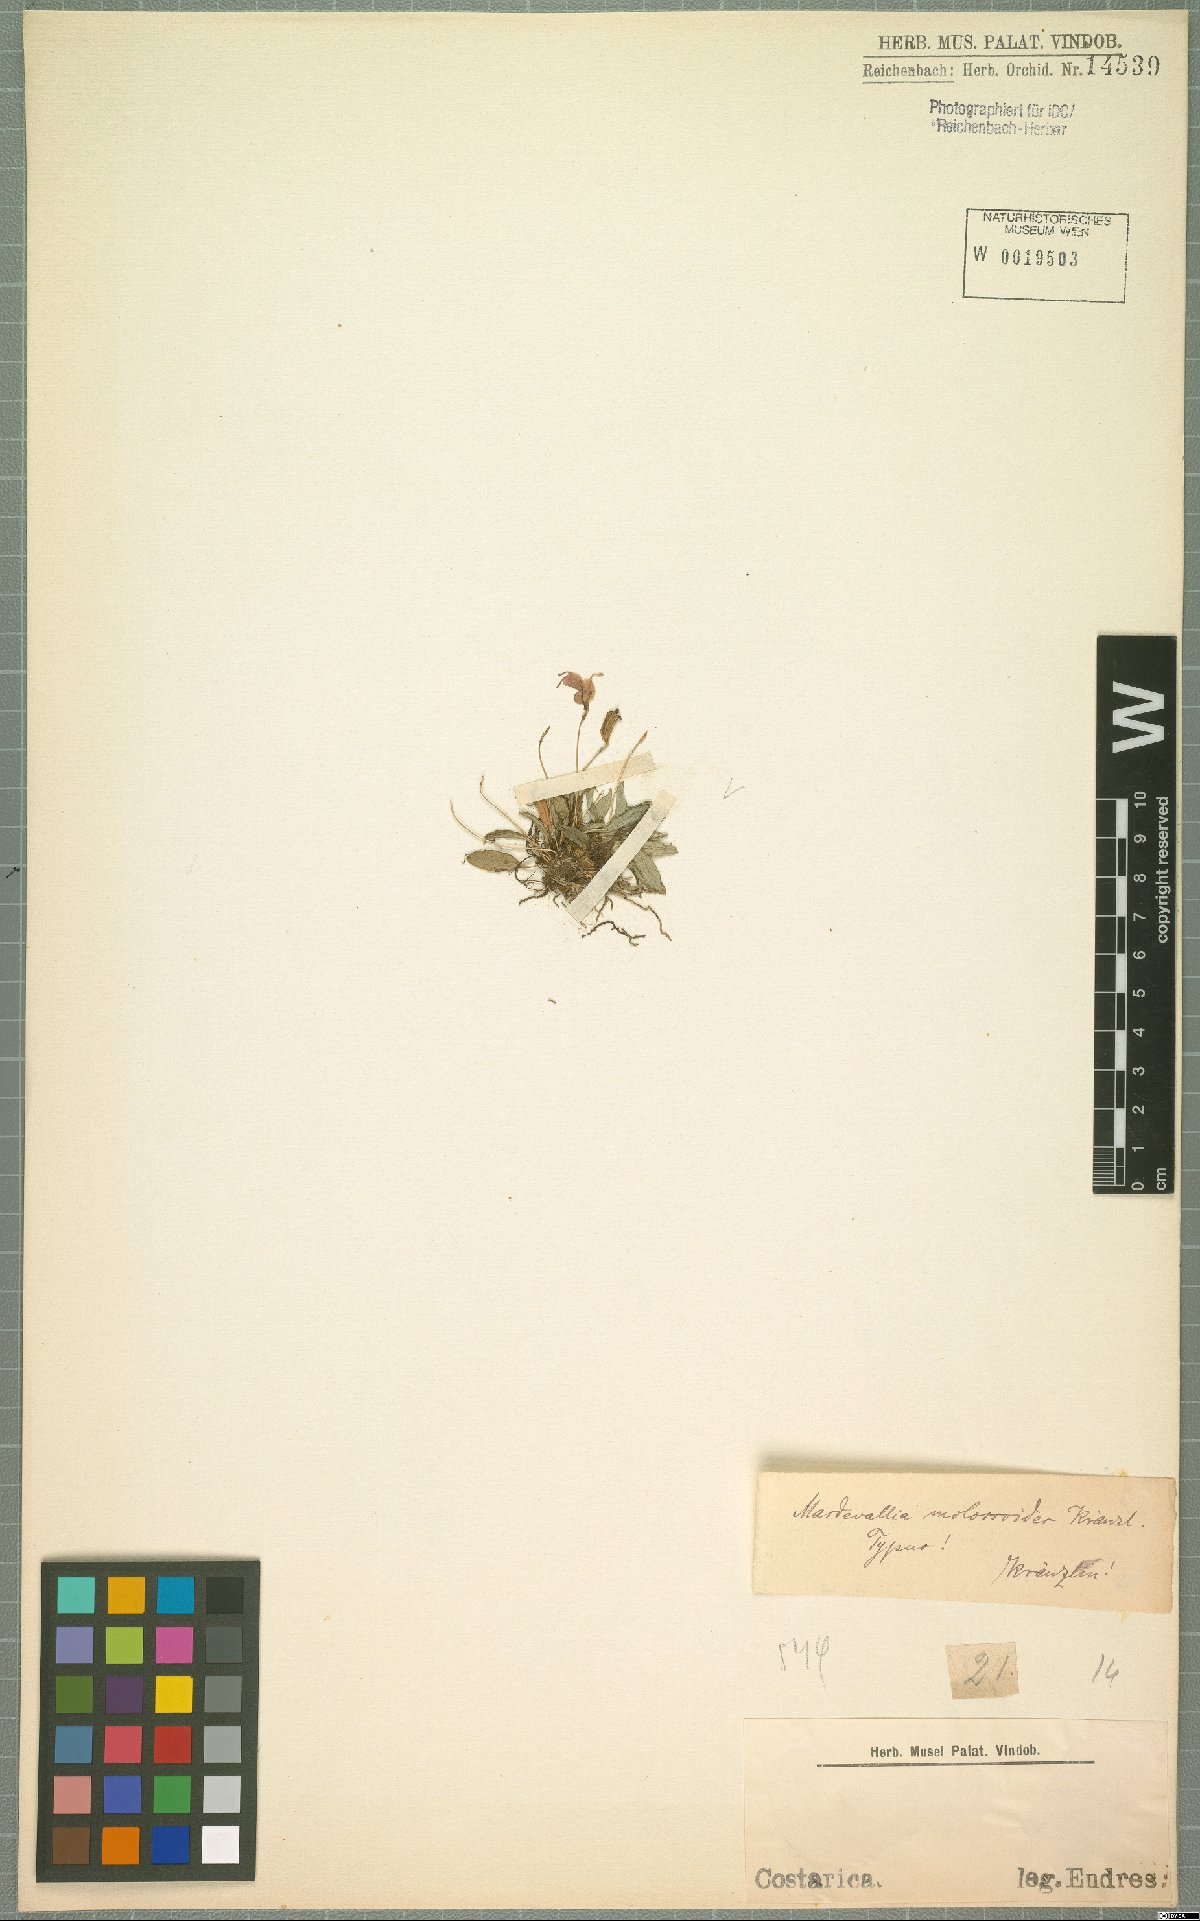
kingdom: Plantae
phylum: Tracheophyta
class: Liliopsida
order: Asparagales
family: Orchidaceae
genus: Masdevallia
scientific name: Masdevallia molossoides
